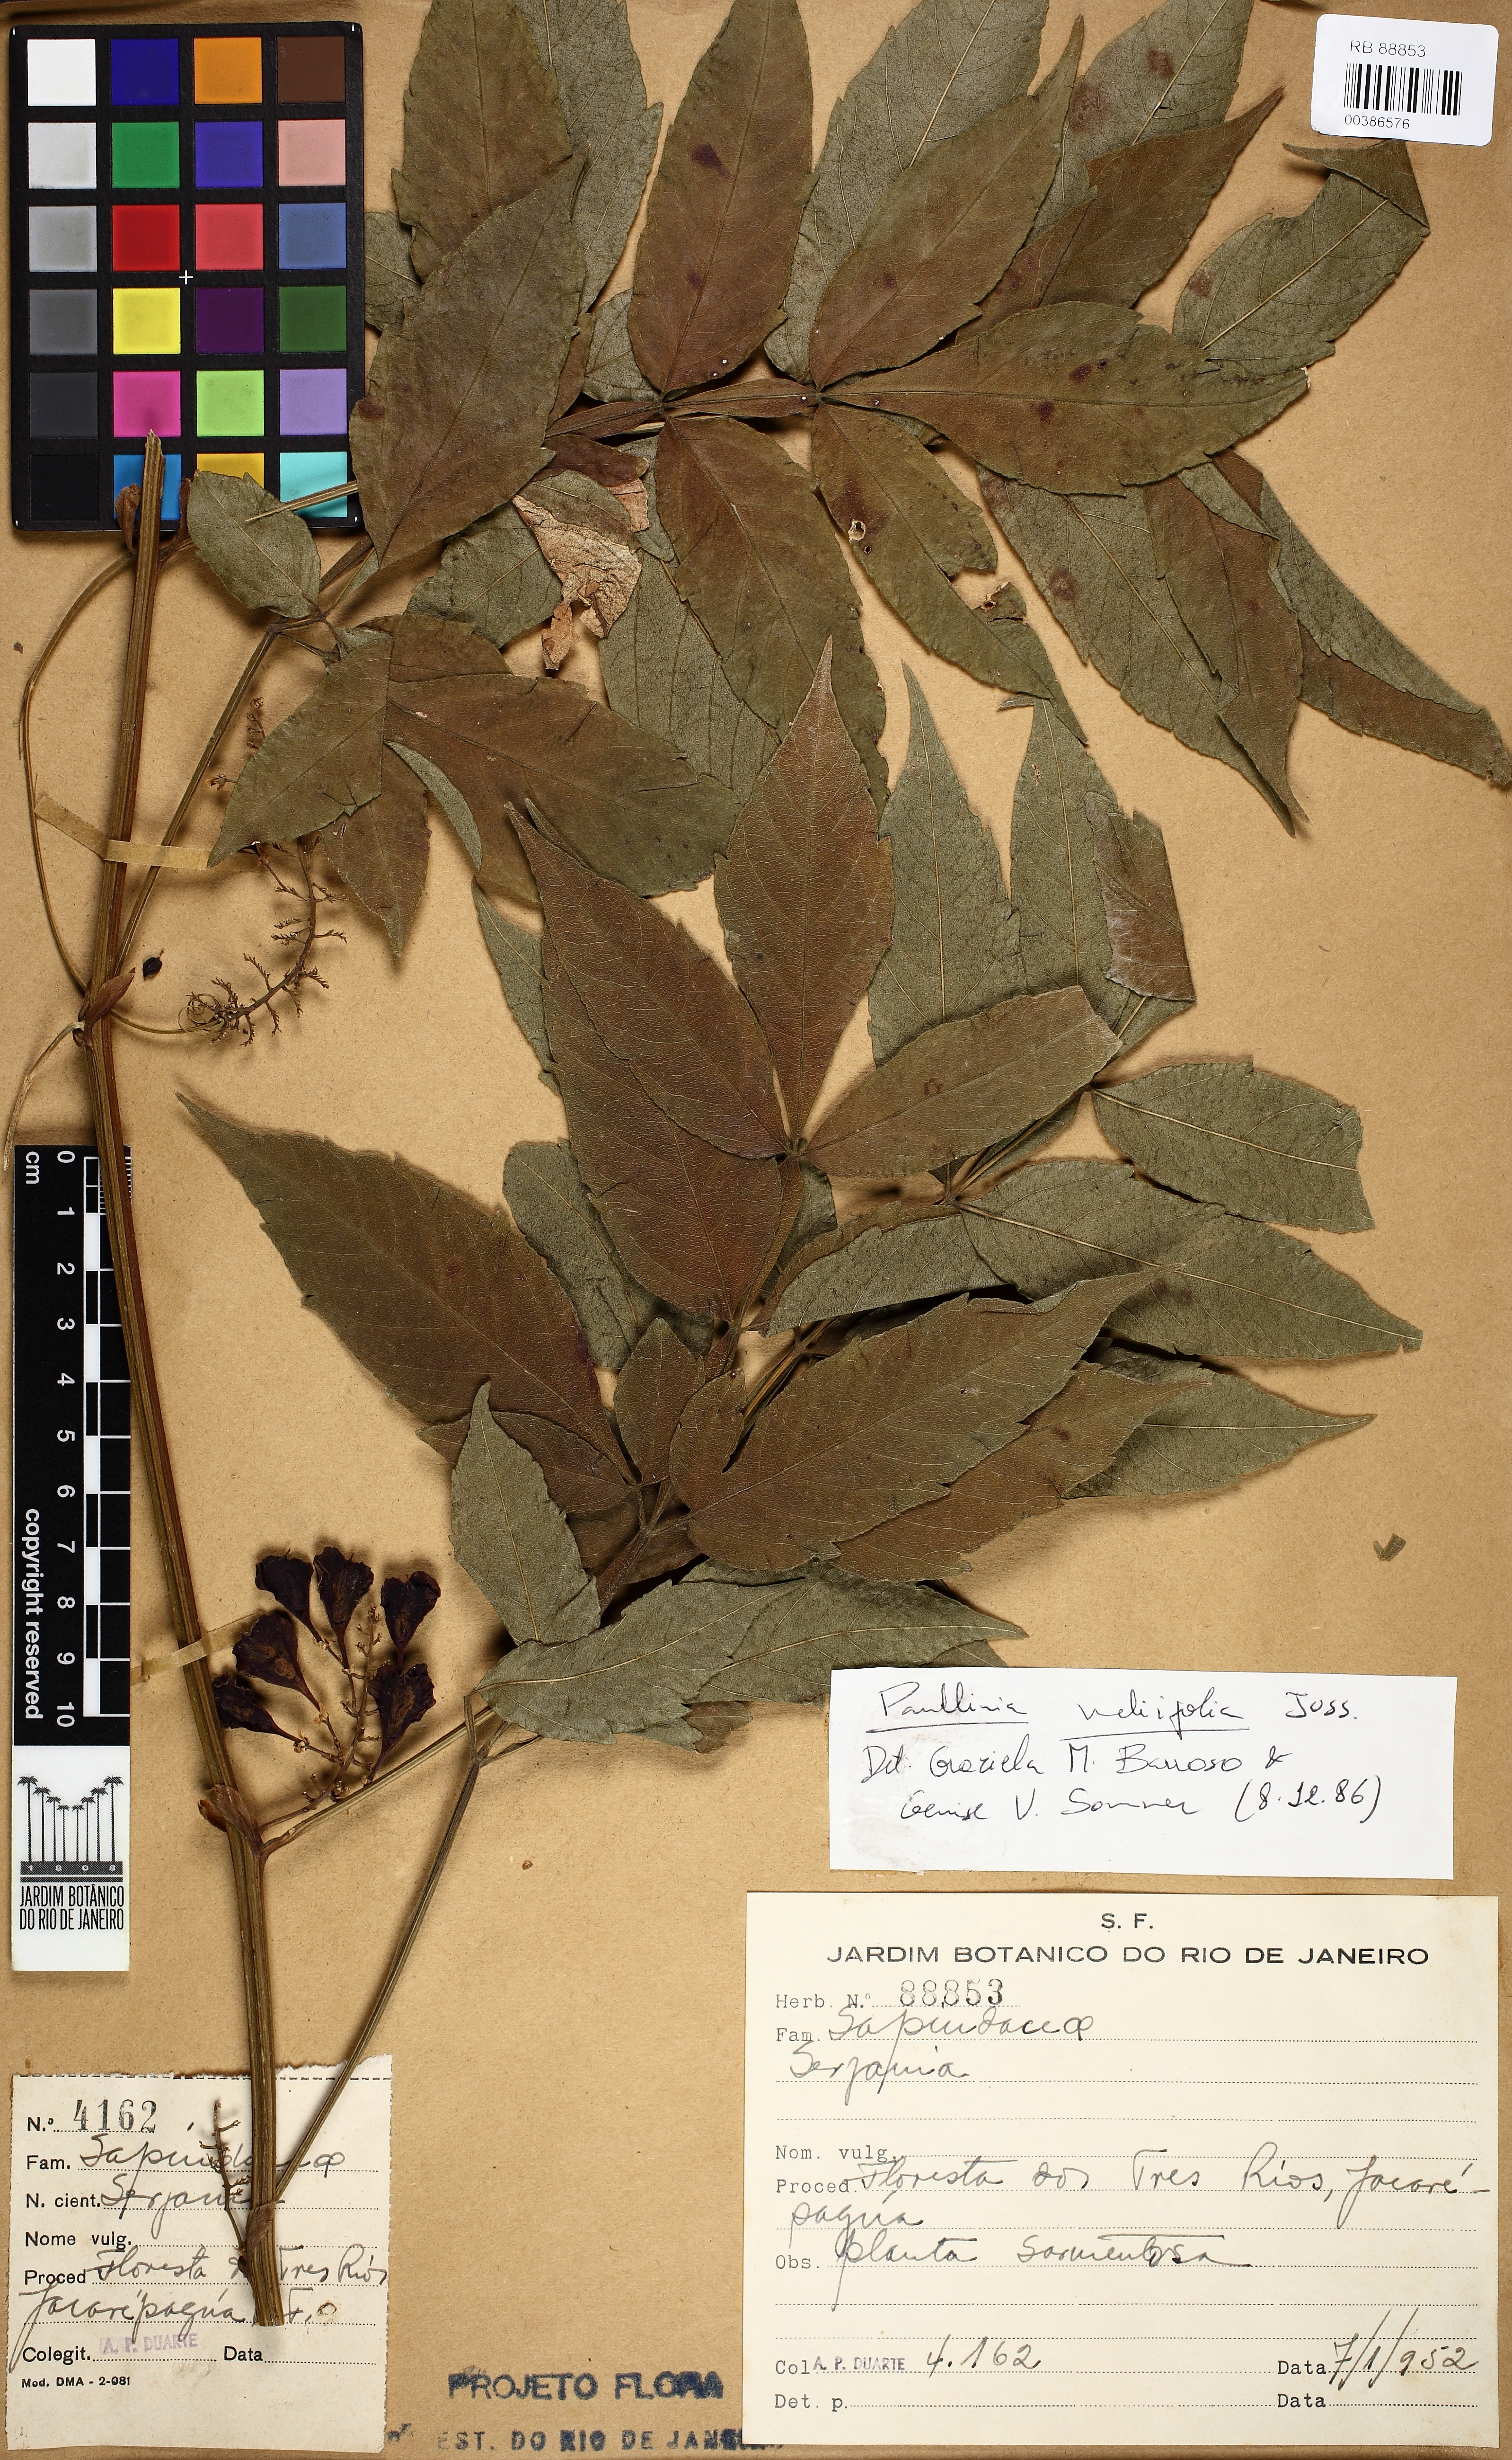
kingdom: Plantae
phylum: Tracheophyta
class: Magnoliopsida
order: Sapindales
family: Sapindaceae
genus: Paullinia
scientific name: Paullinia meliifolia
